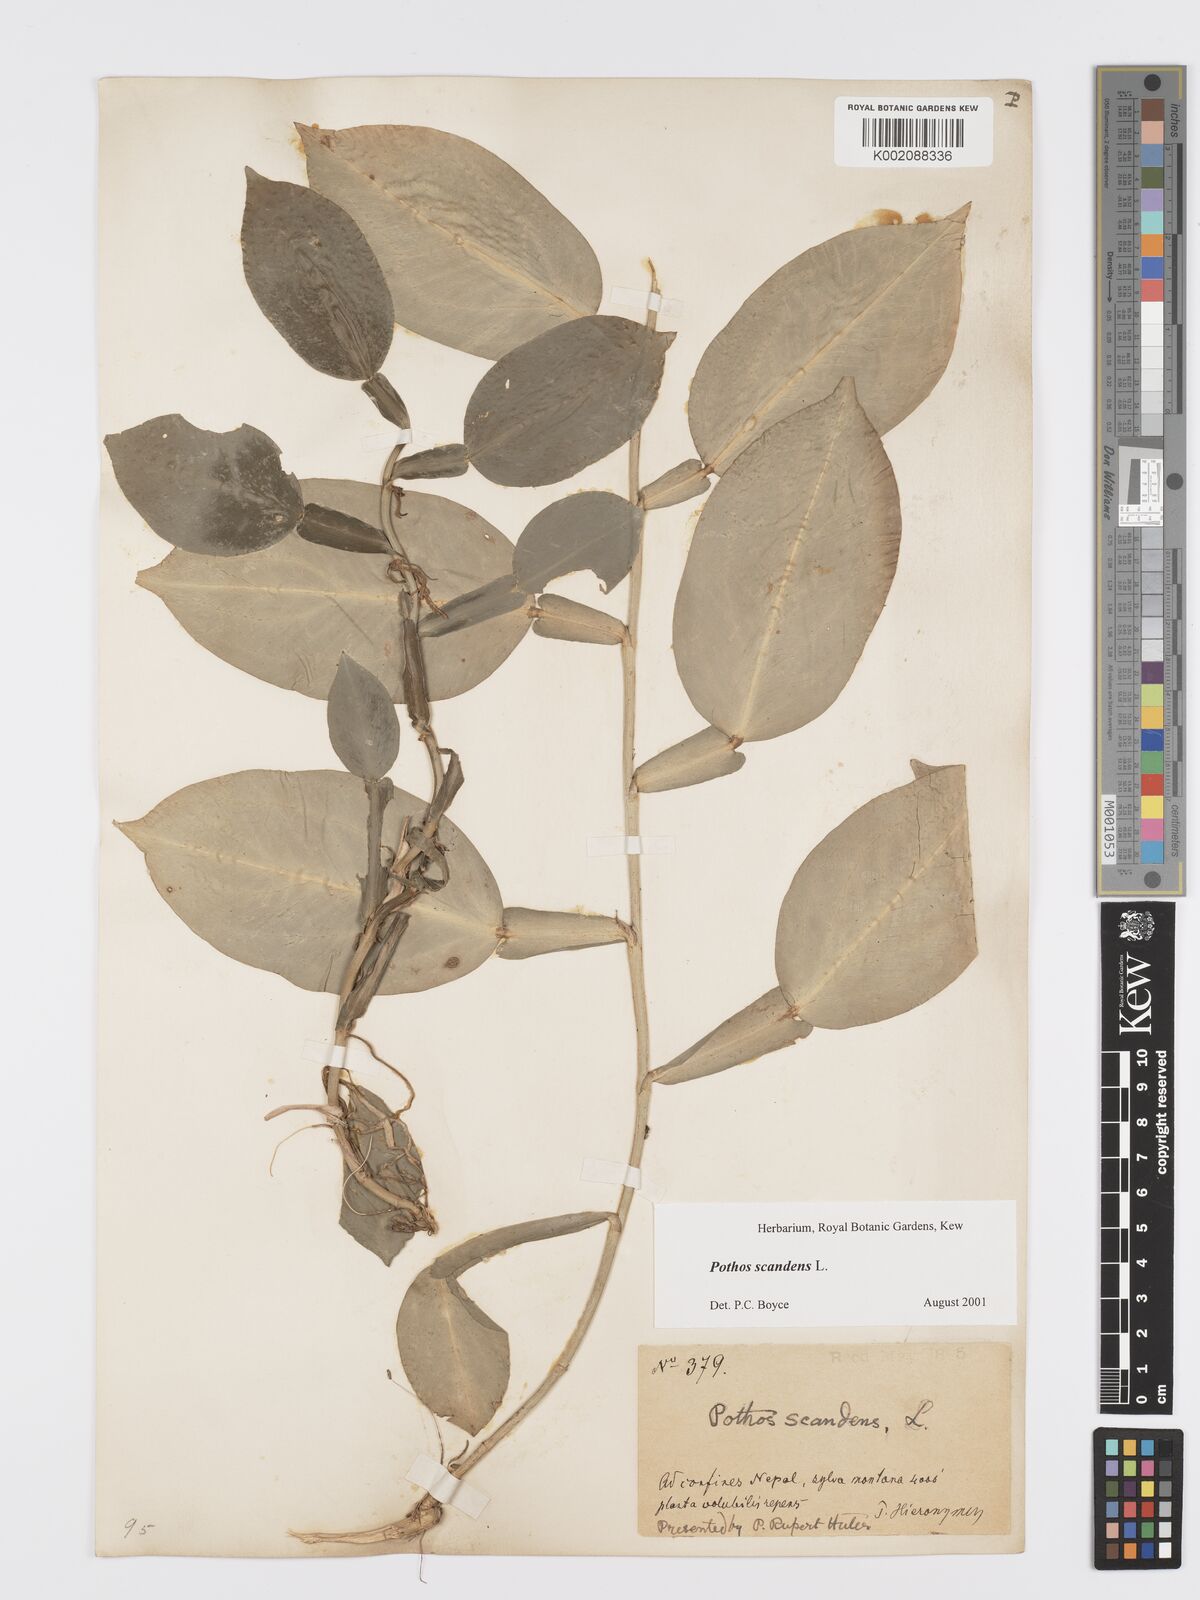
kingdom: Plantae
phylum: Tracheophyta
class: Liliopsida
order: Alismatales
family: Araceae
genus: Pothos
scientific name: Pothos scandens
